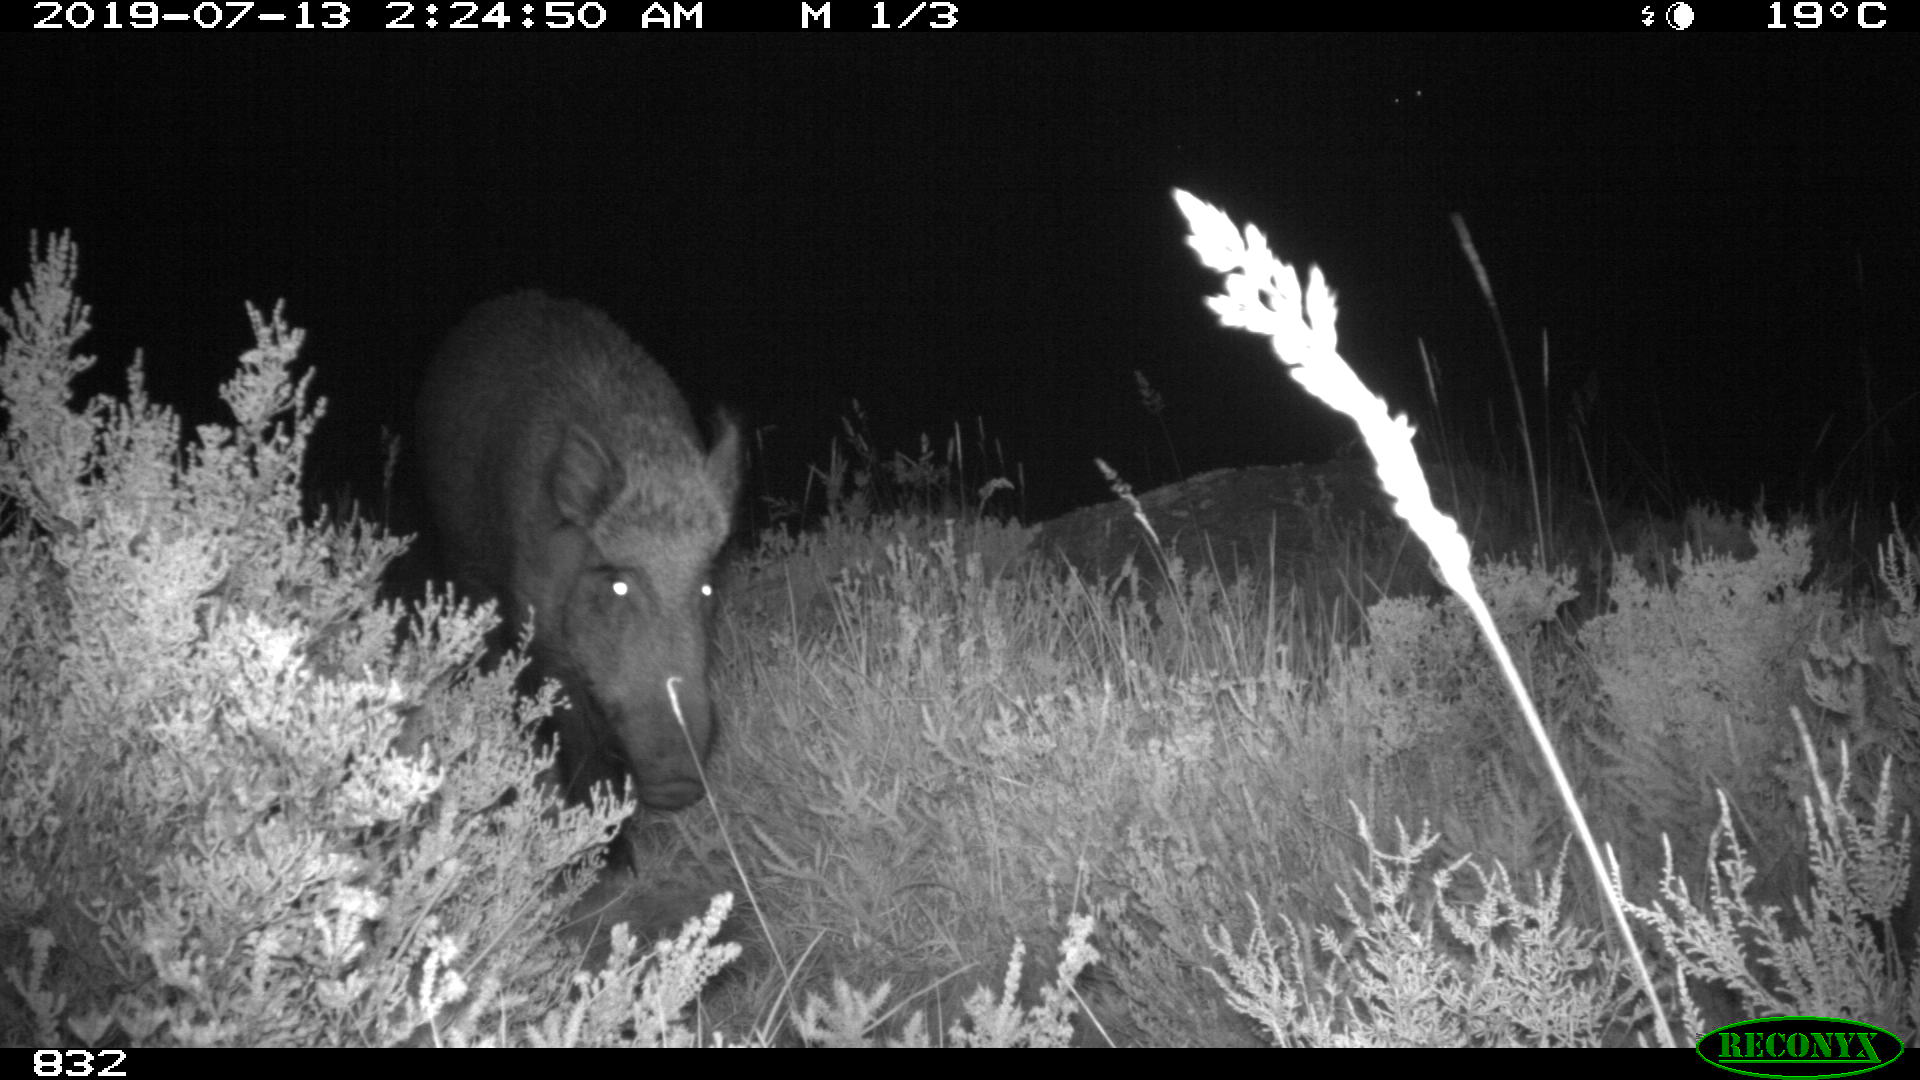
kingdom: Animalia
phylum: Chordata
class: Mammalia
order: Artiodactyla
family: Suidae
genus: Sus
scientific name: Sus scrofa
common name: Wild boar
